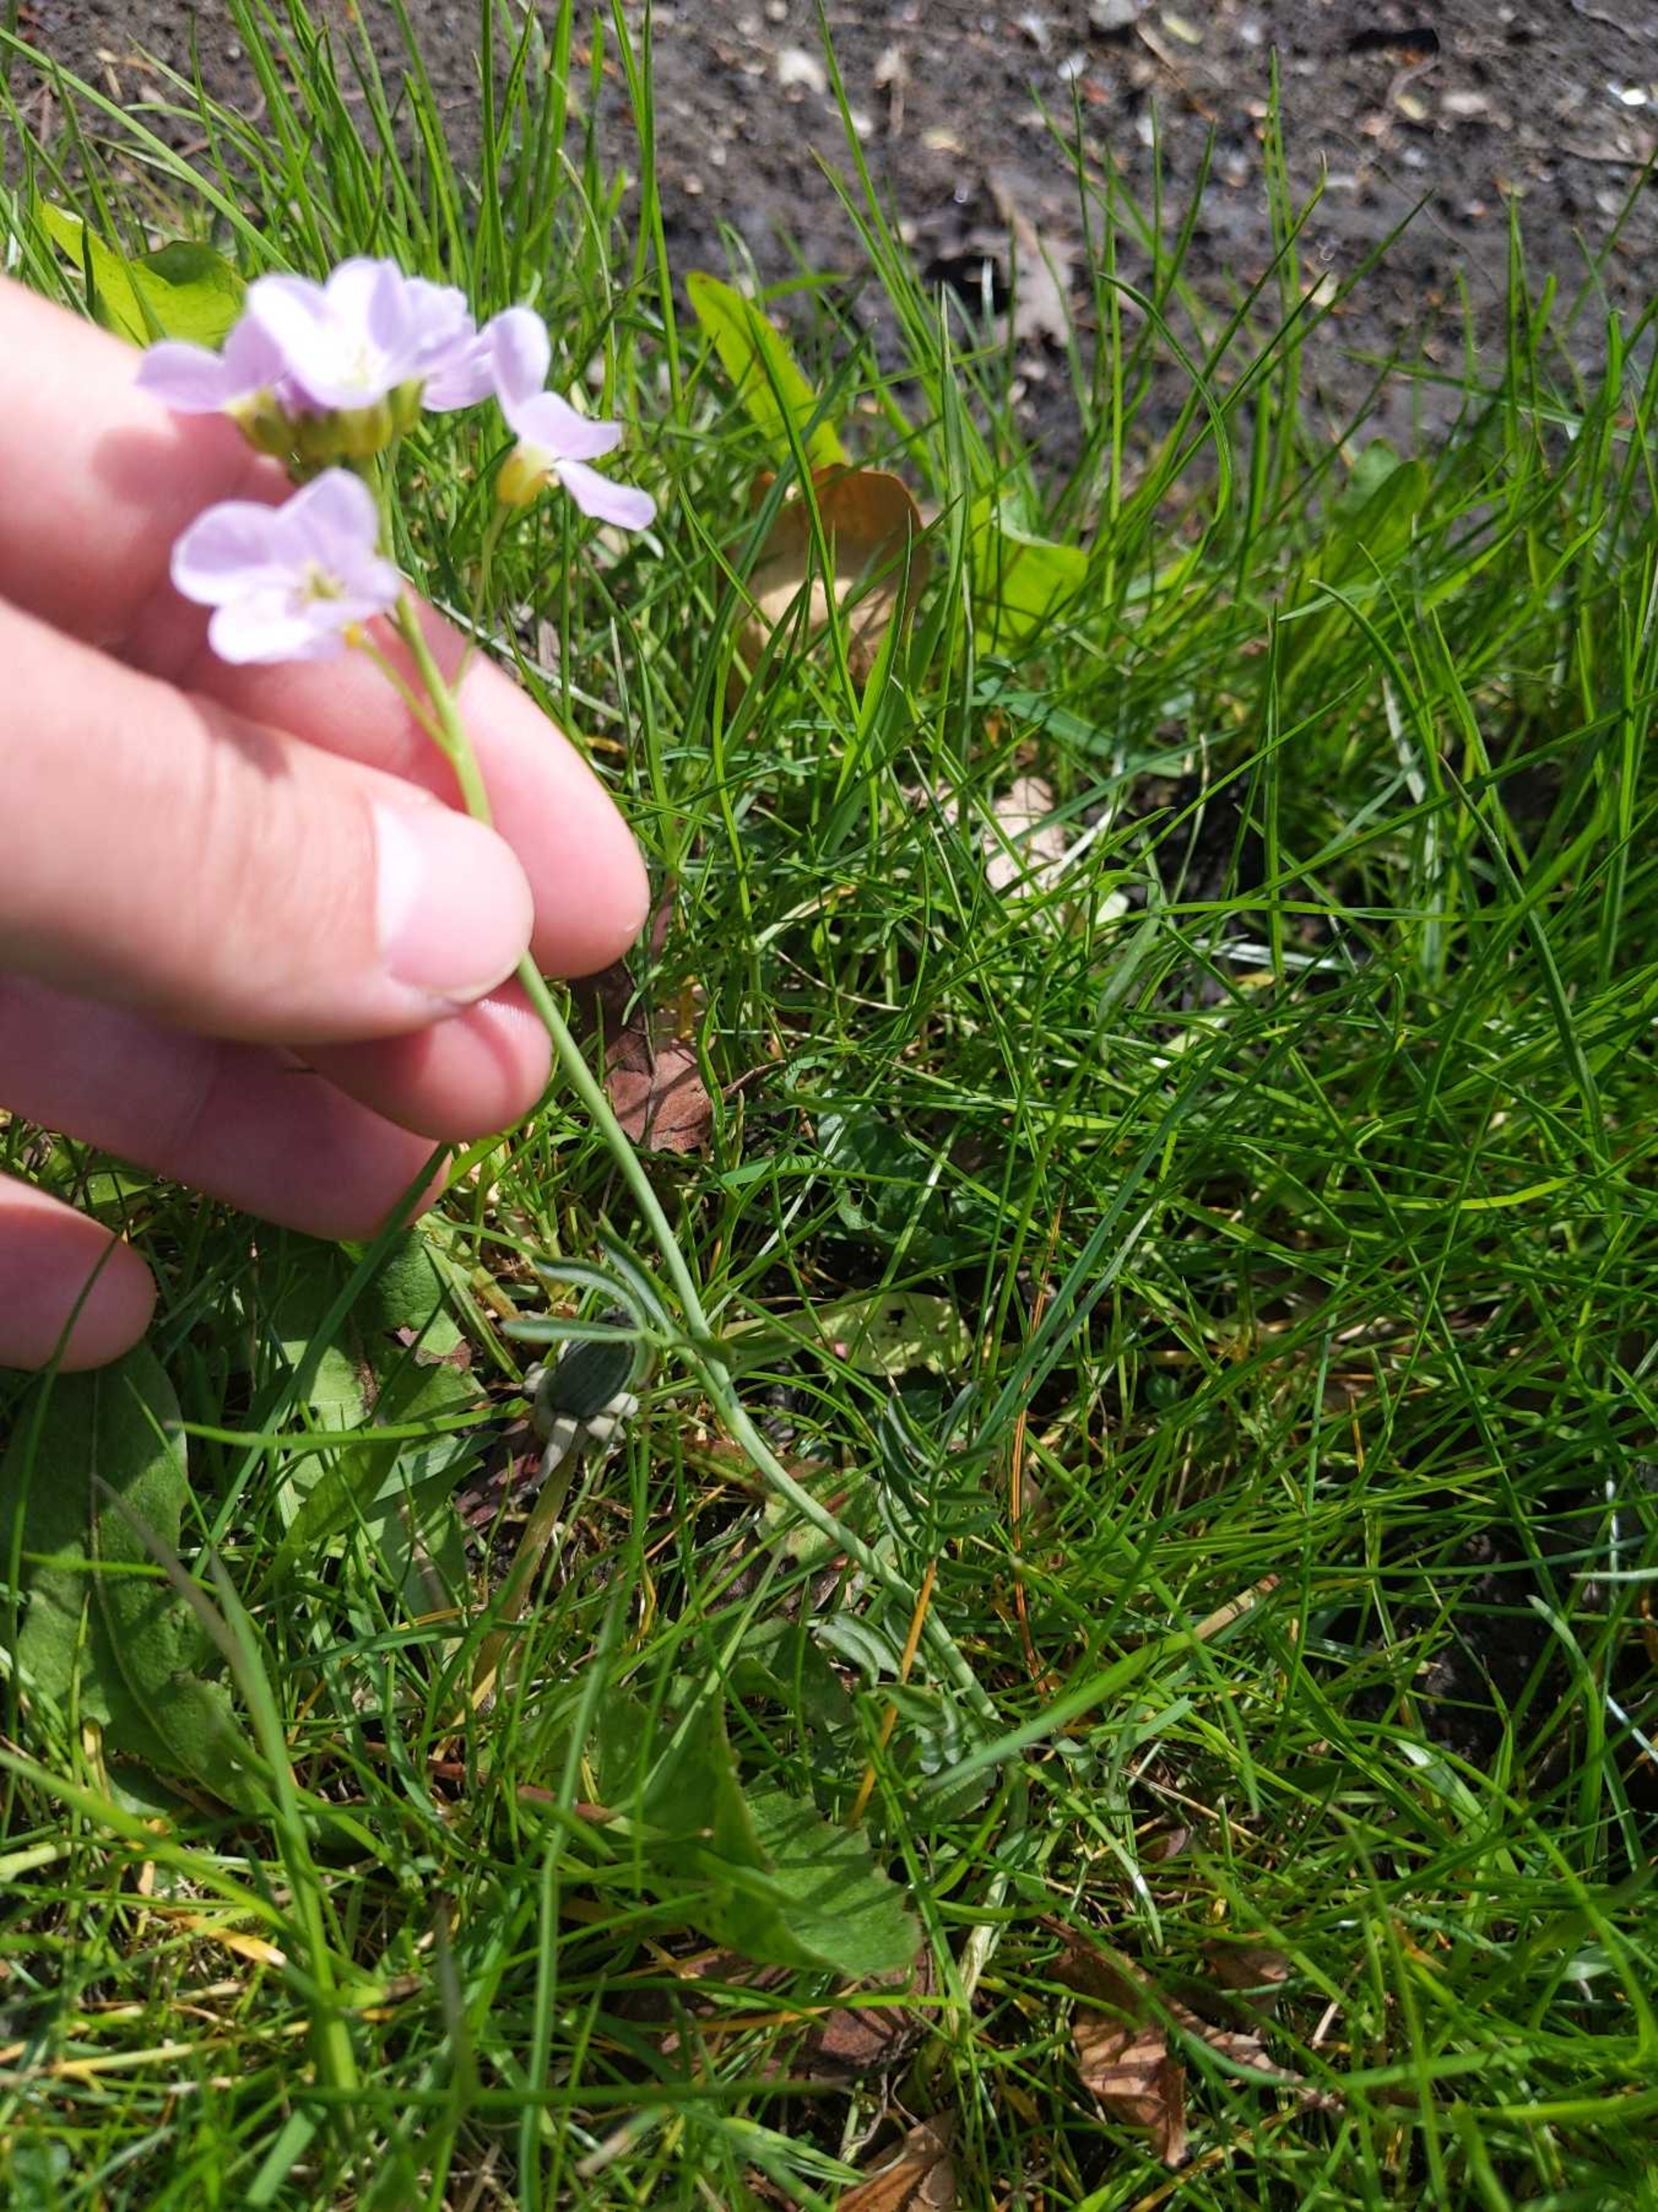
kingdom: Plantae
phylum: Tracheophyta
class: Magnoliopsida
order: Brassicales
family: Brassicaceae
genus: Cardamine
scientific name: Cardamine pratensis
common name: Engkarse
